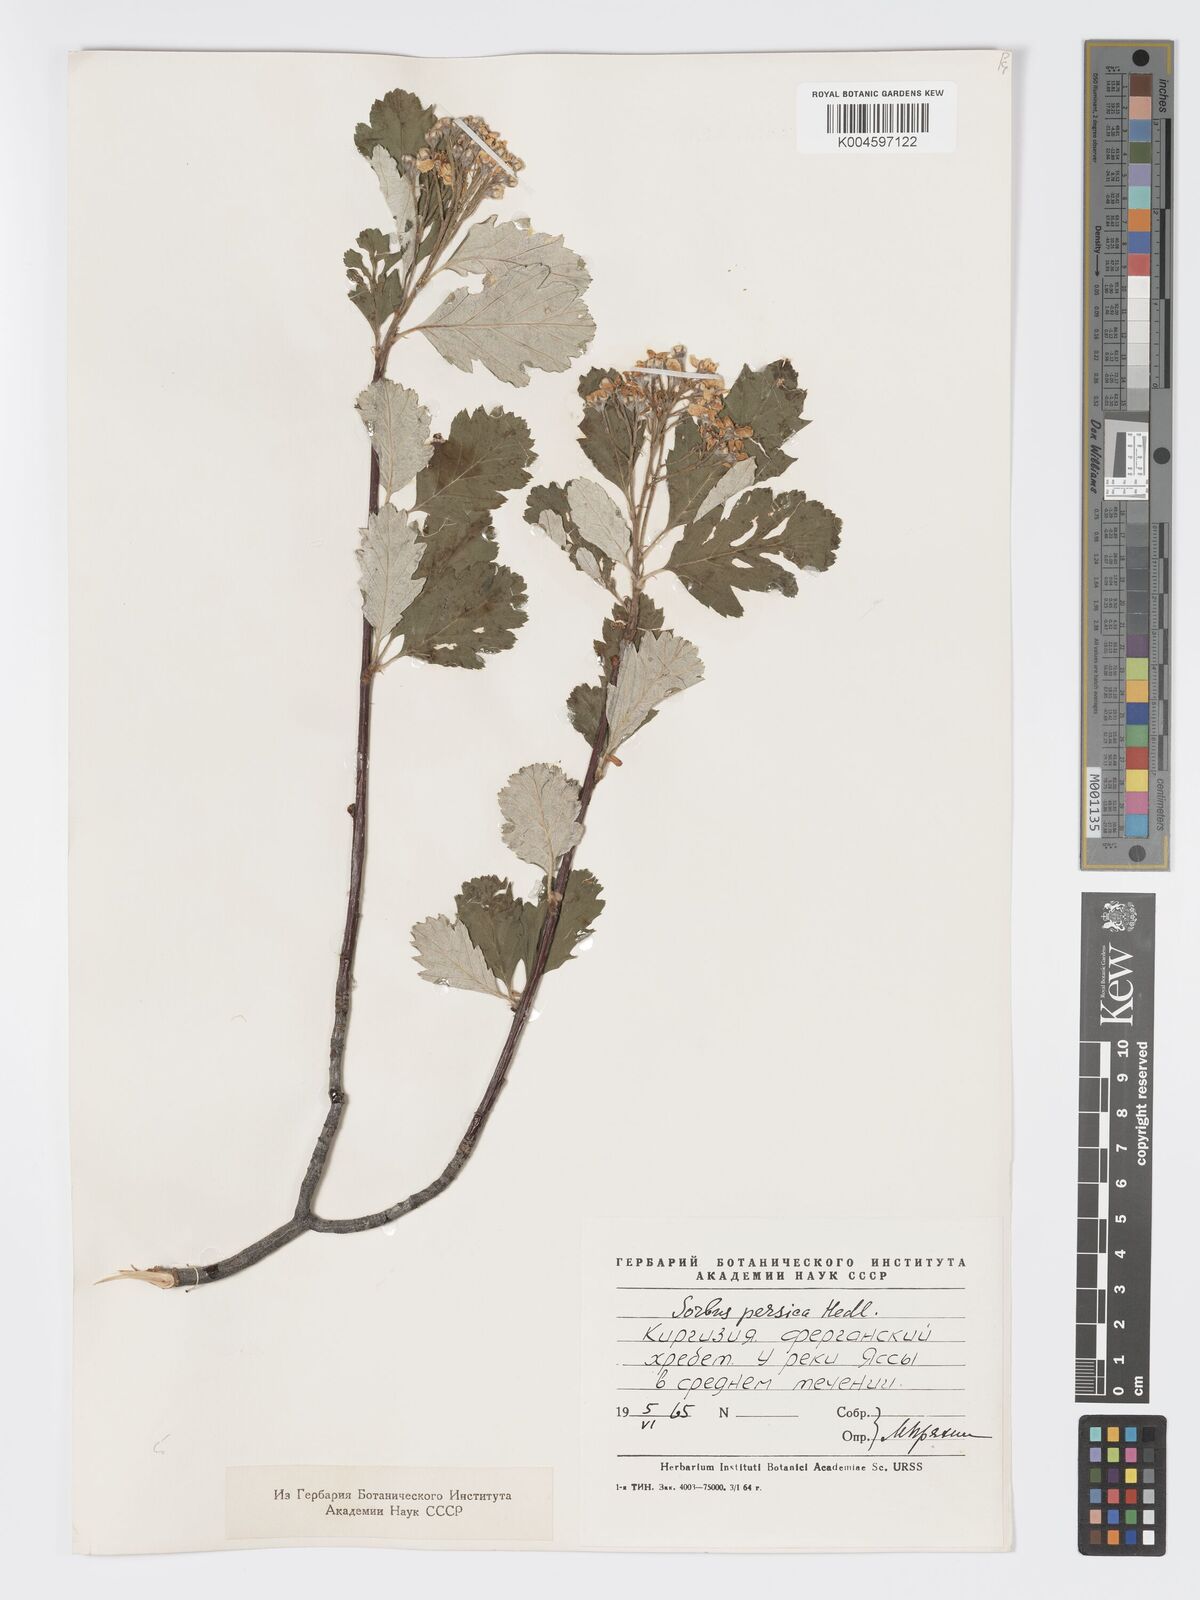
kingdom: Plantae
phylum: Tracheophyta
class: Magnoliopsida
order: Rosales
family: Rosaceae
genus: Hedlundia
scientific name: Hedlundia persica
